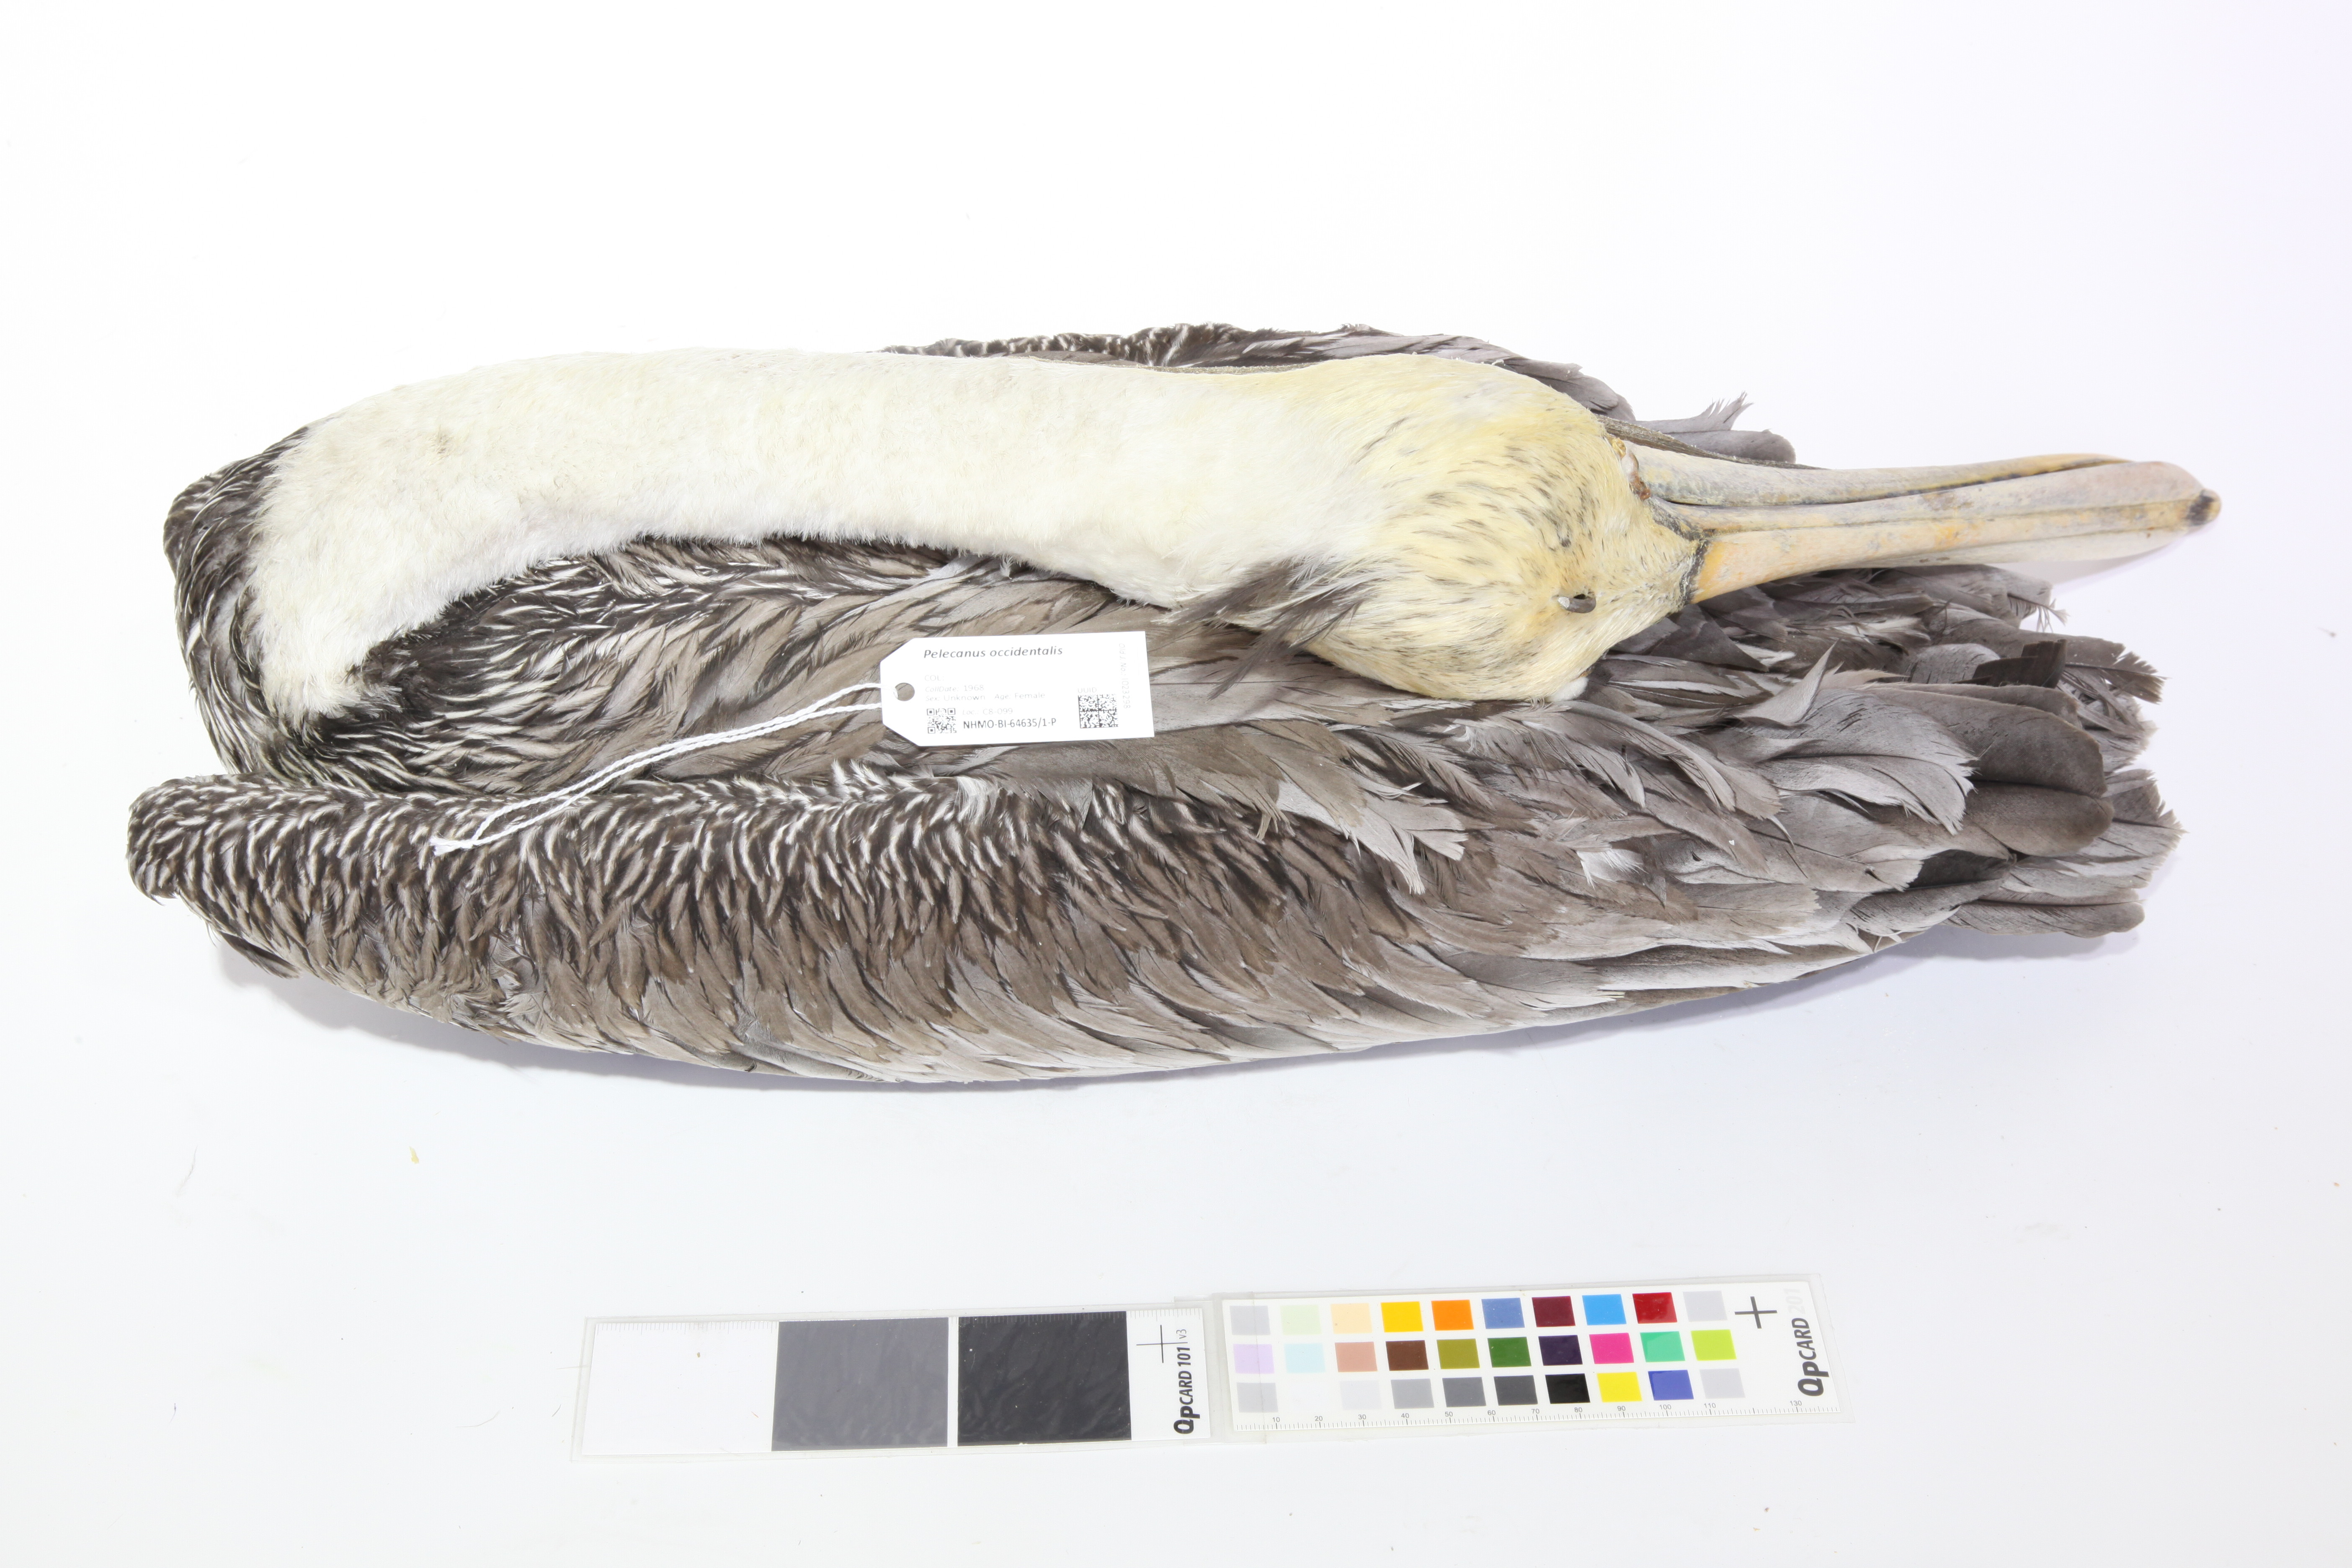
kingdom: Animalia
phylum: Chordata
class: Aves
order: Pelecaniformes
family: Pelecanidae
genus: Pelecanus
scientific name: Pelecanus occidentalis
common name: Brown pelican
